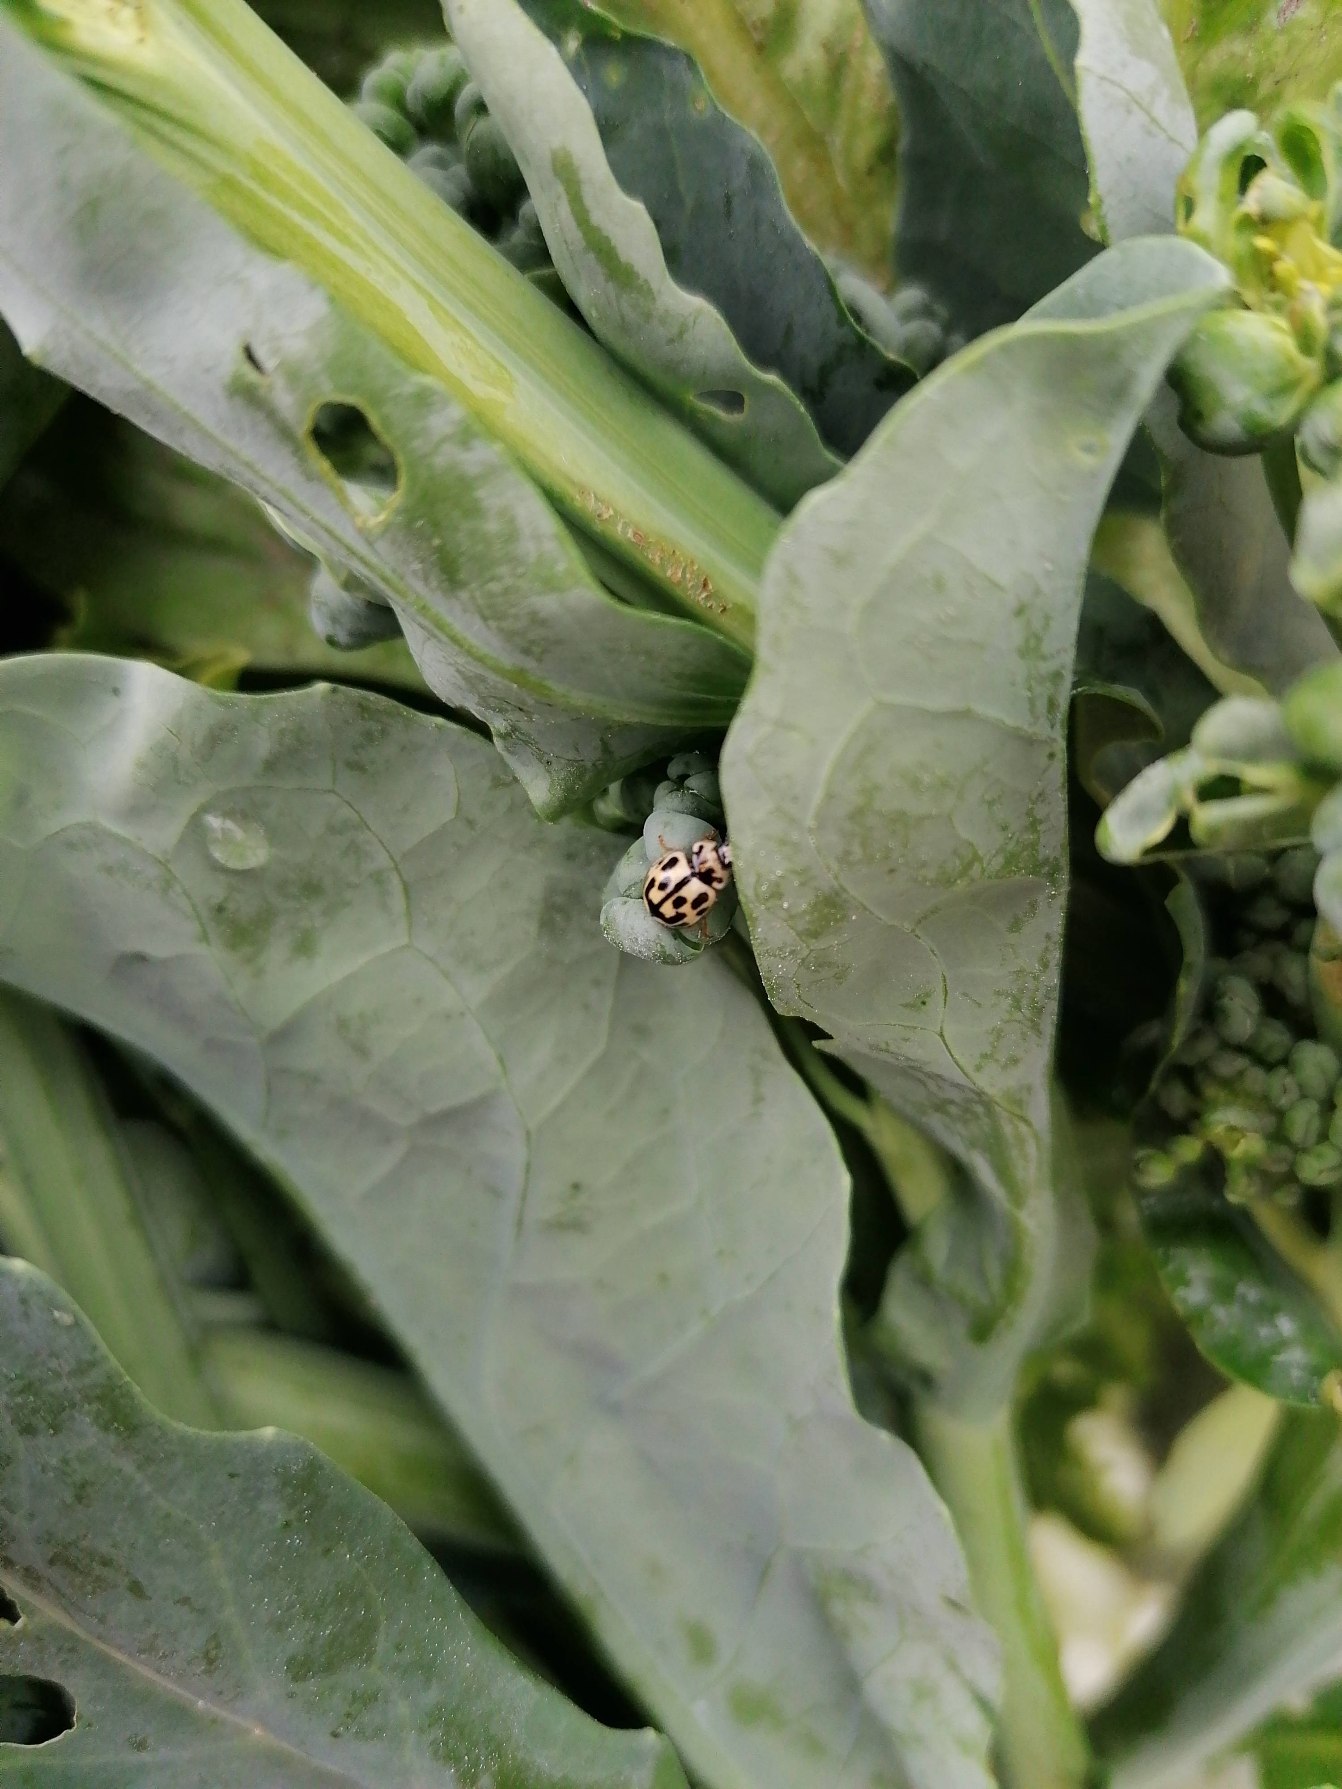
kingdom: Animalia
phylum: Arthropoda
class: Insecta
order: Coleoptera
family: Coccinellidae
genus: Propylaea
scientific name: Propylaea quatuordecimpunctata
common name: Skakbræt
